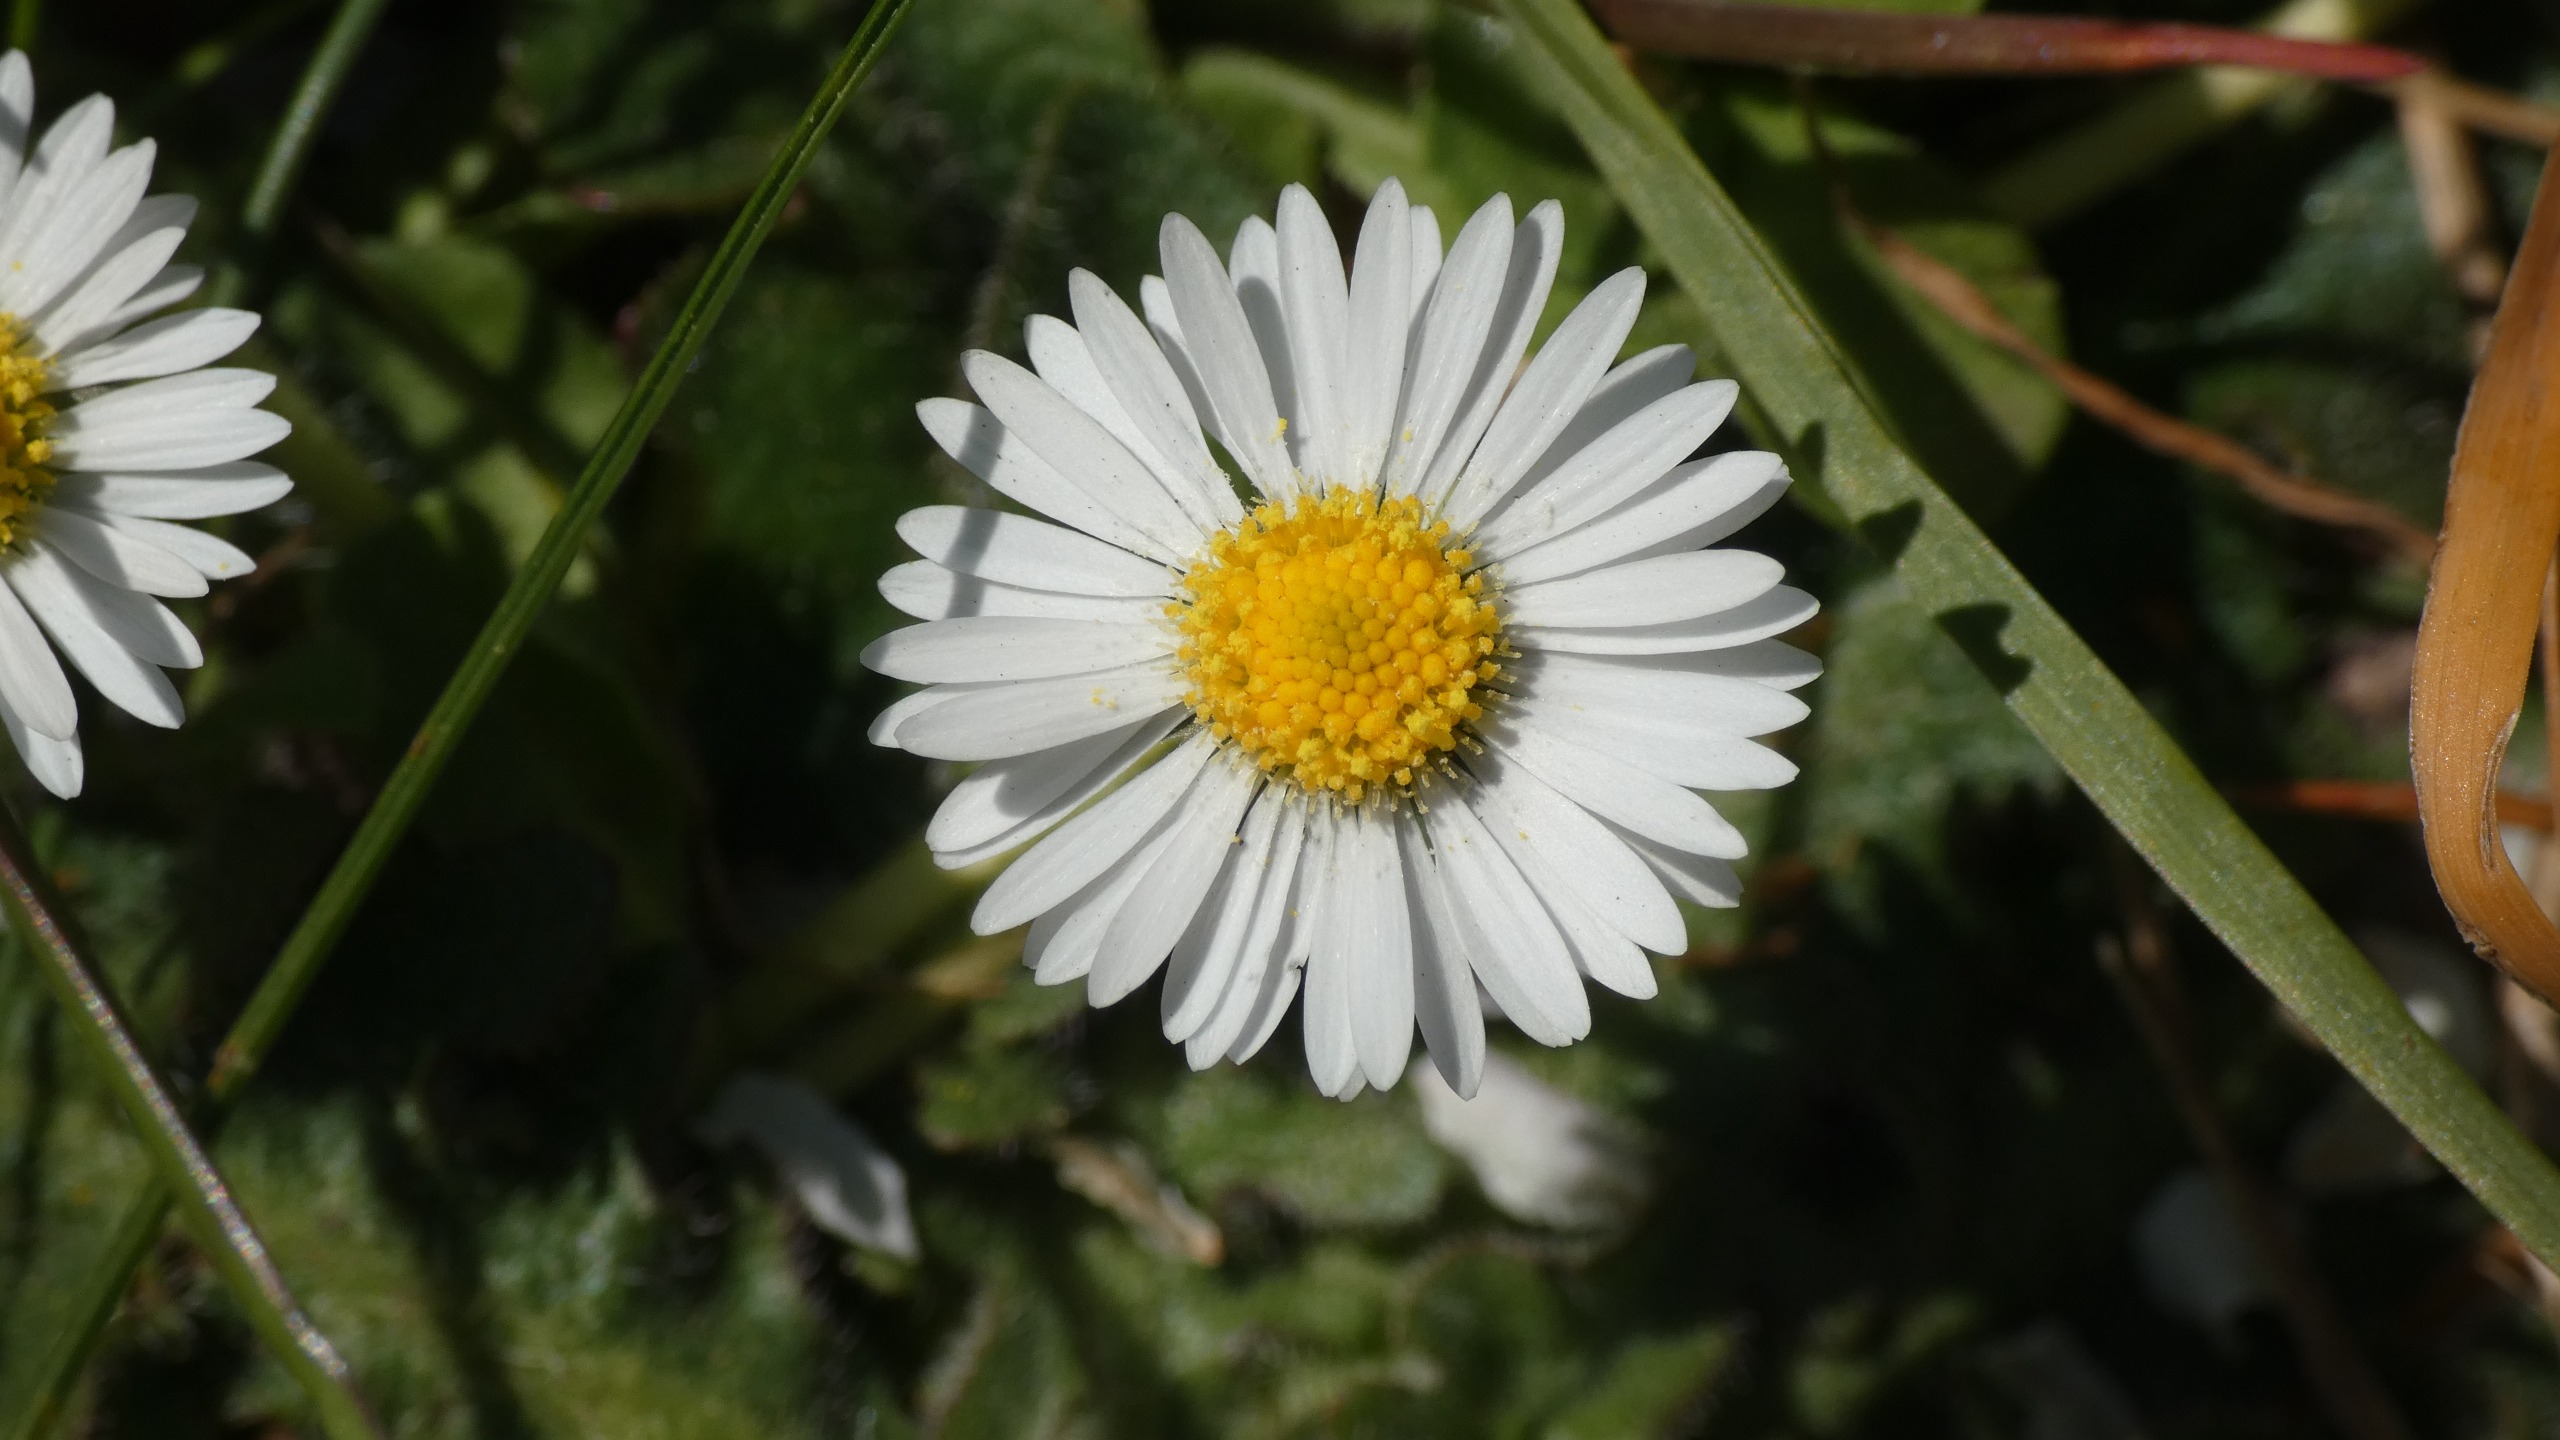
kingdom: Plantae
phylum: Tracheophyta
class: Magnoliopsida
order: Asterales
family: Asteraceae
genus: Bellis
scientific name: Bellis perennis
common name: Tusindfryd
